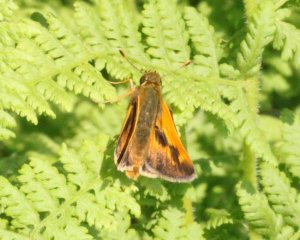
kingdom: Animalia
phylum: Arthropoda
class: Insecta
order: Lepidoptera
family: Hesperiidae
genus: Polites
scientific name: Polites
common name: Long Dash Skipper
